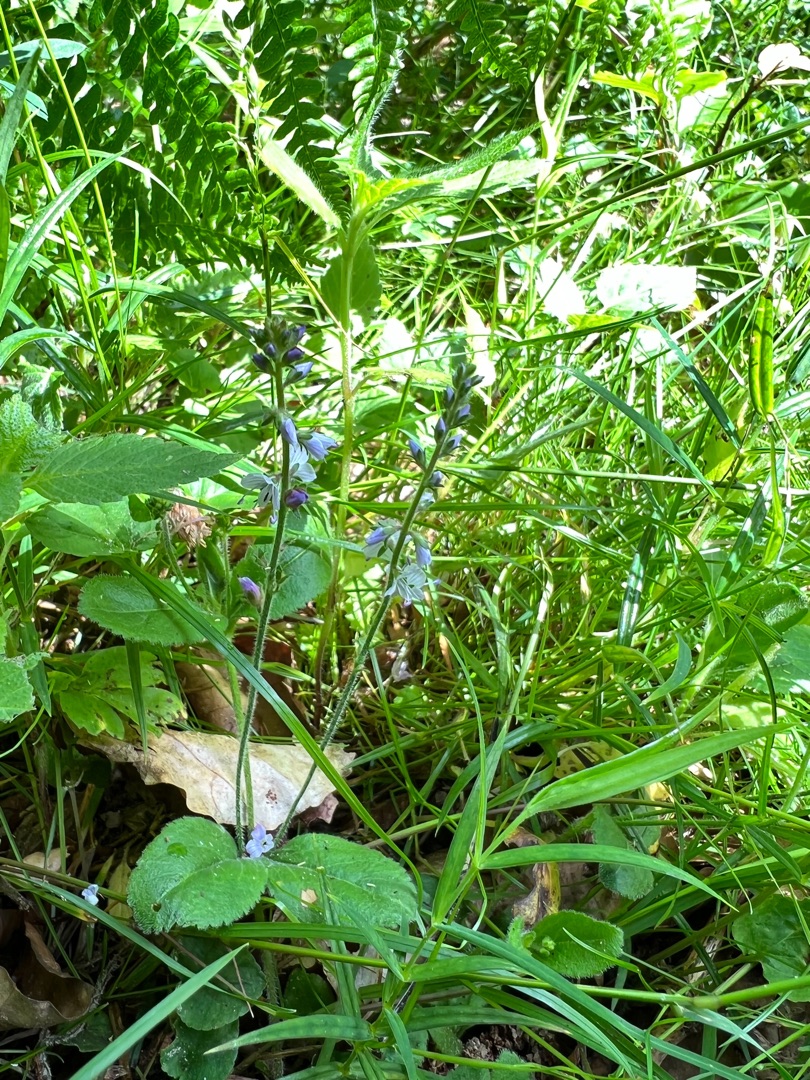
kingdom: Plantae
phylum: Tracheophyta
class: Magnoliopsida
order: Lamiales
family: Plantaginaceae
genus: Veronica
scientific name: Veronica officinalis
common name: Læge-ærenpris
